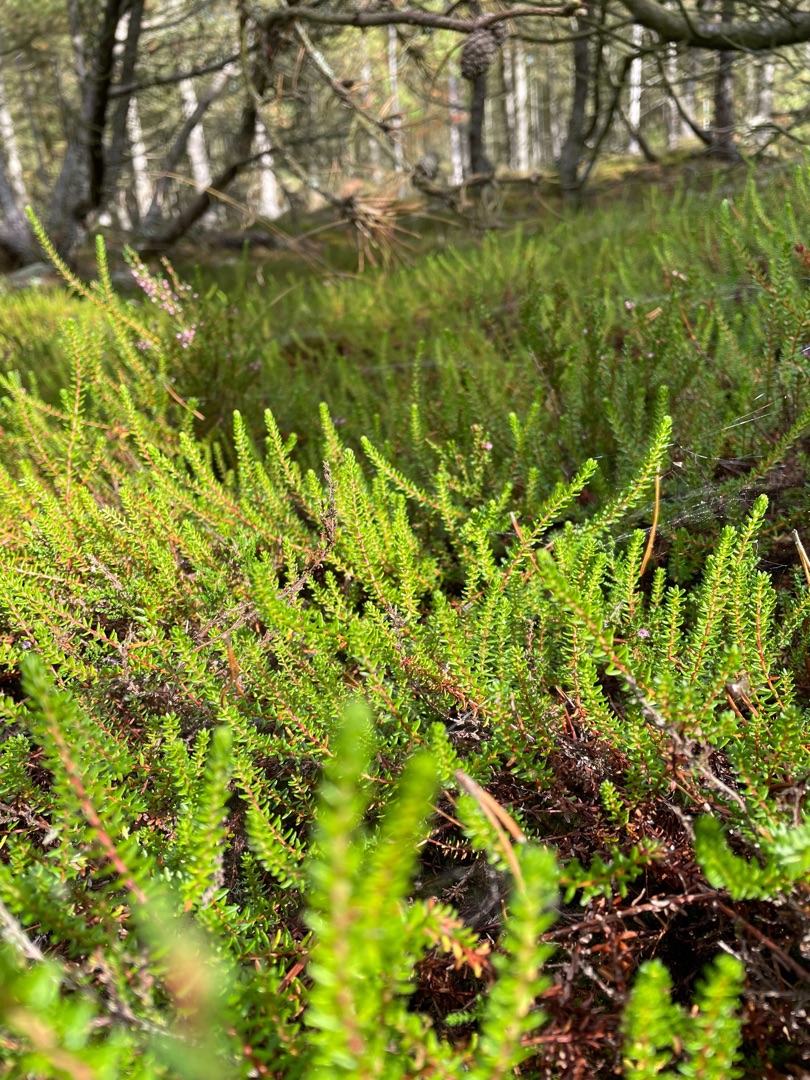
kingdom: Plantae
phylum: Tracheophyta
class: Magnoliopsida
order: Ericales
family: Ericaceae
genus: Empetrum
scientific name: Empetrum nigrum
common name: Revling
